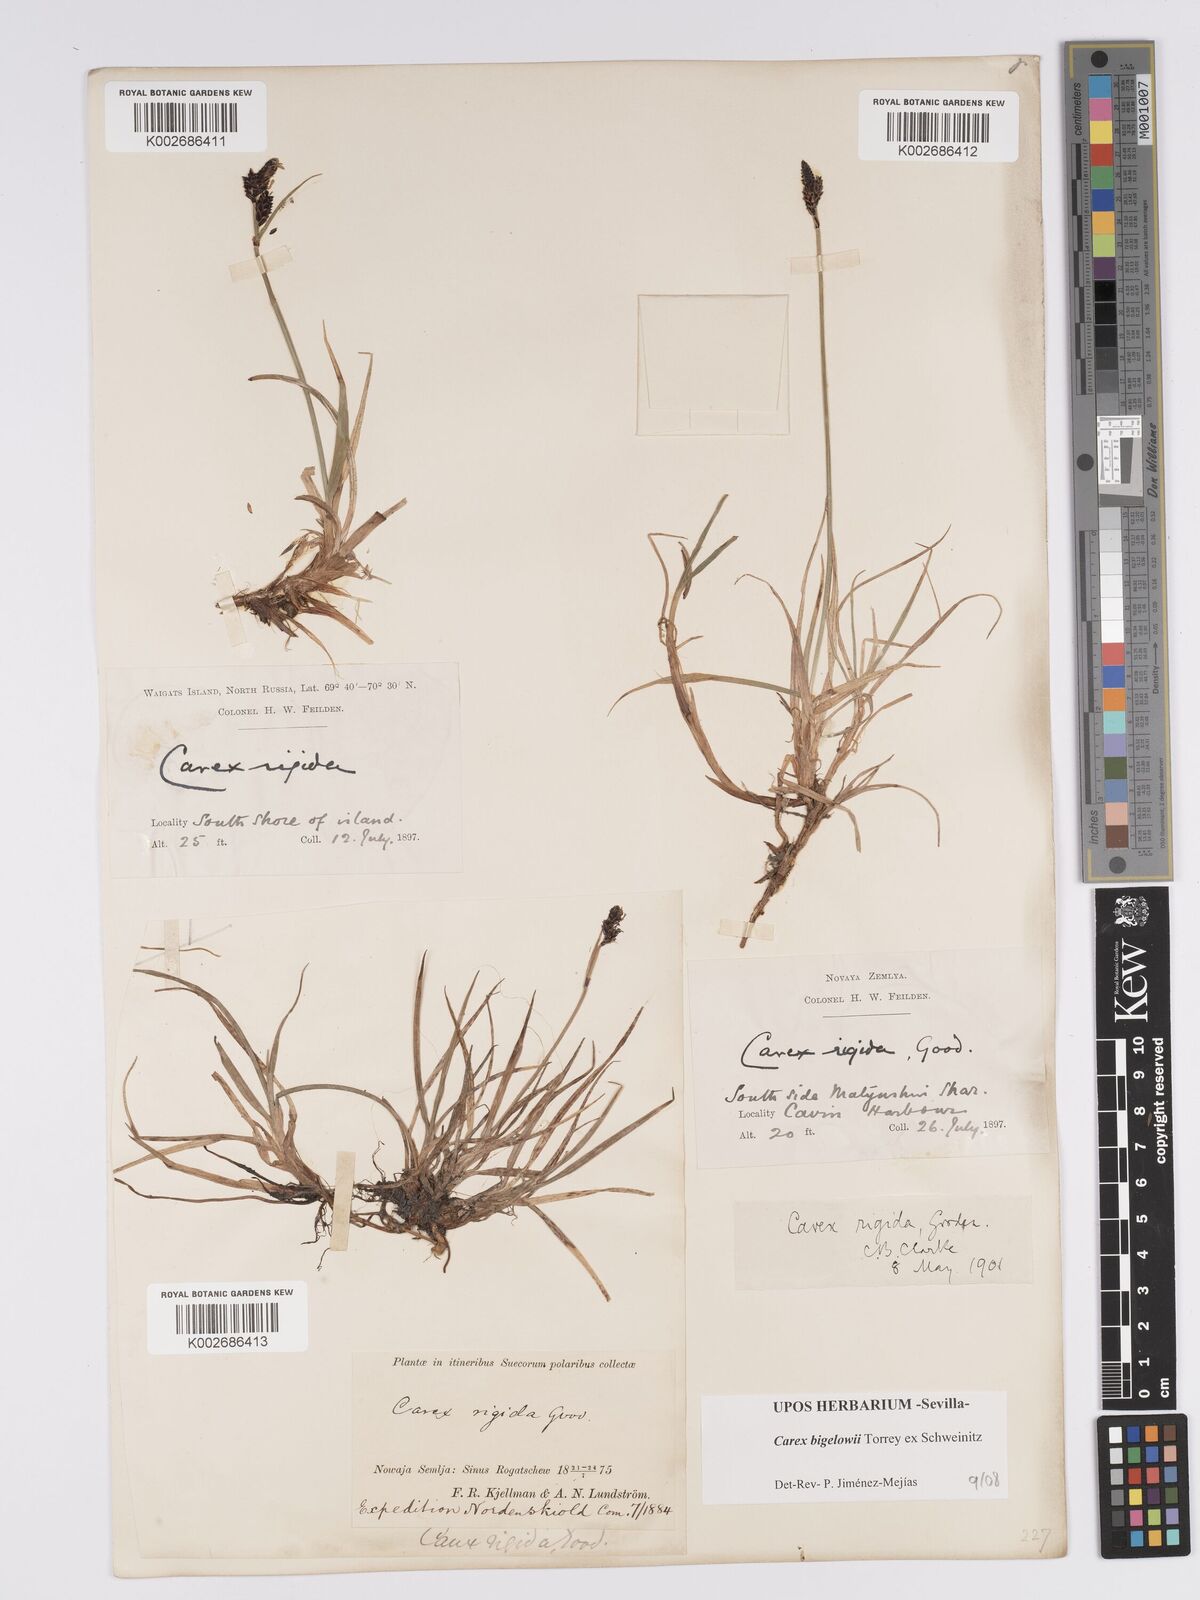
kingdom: Plantae
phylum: Tracheophyta
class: Liliopsida
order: Poales
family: Cyperaceae
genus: Carex
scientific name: Carex bigelowii
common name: Stiff sedge
